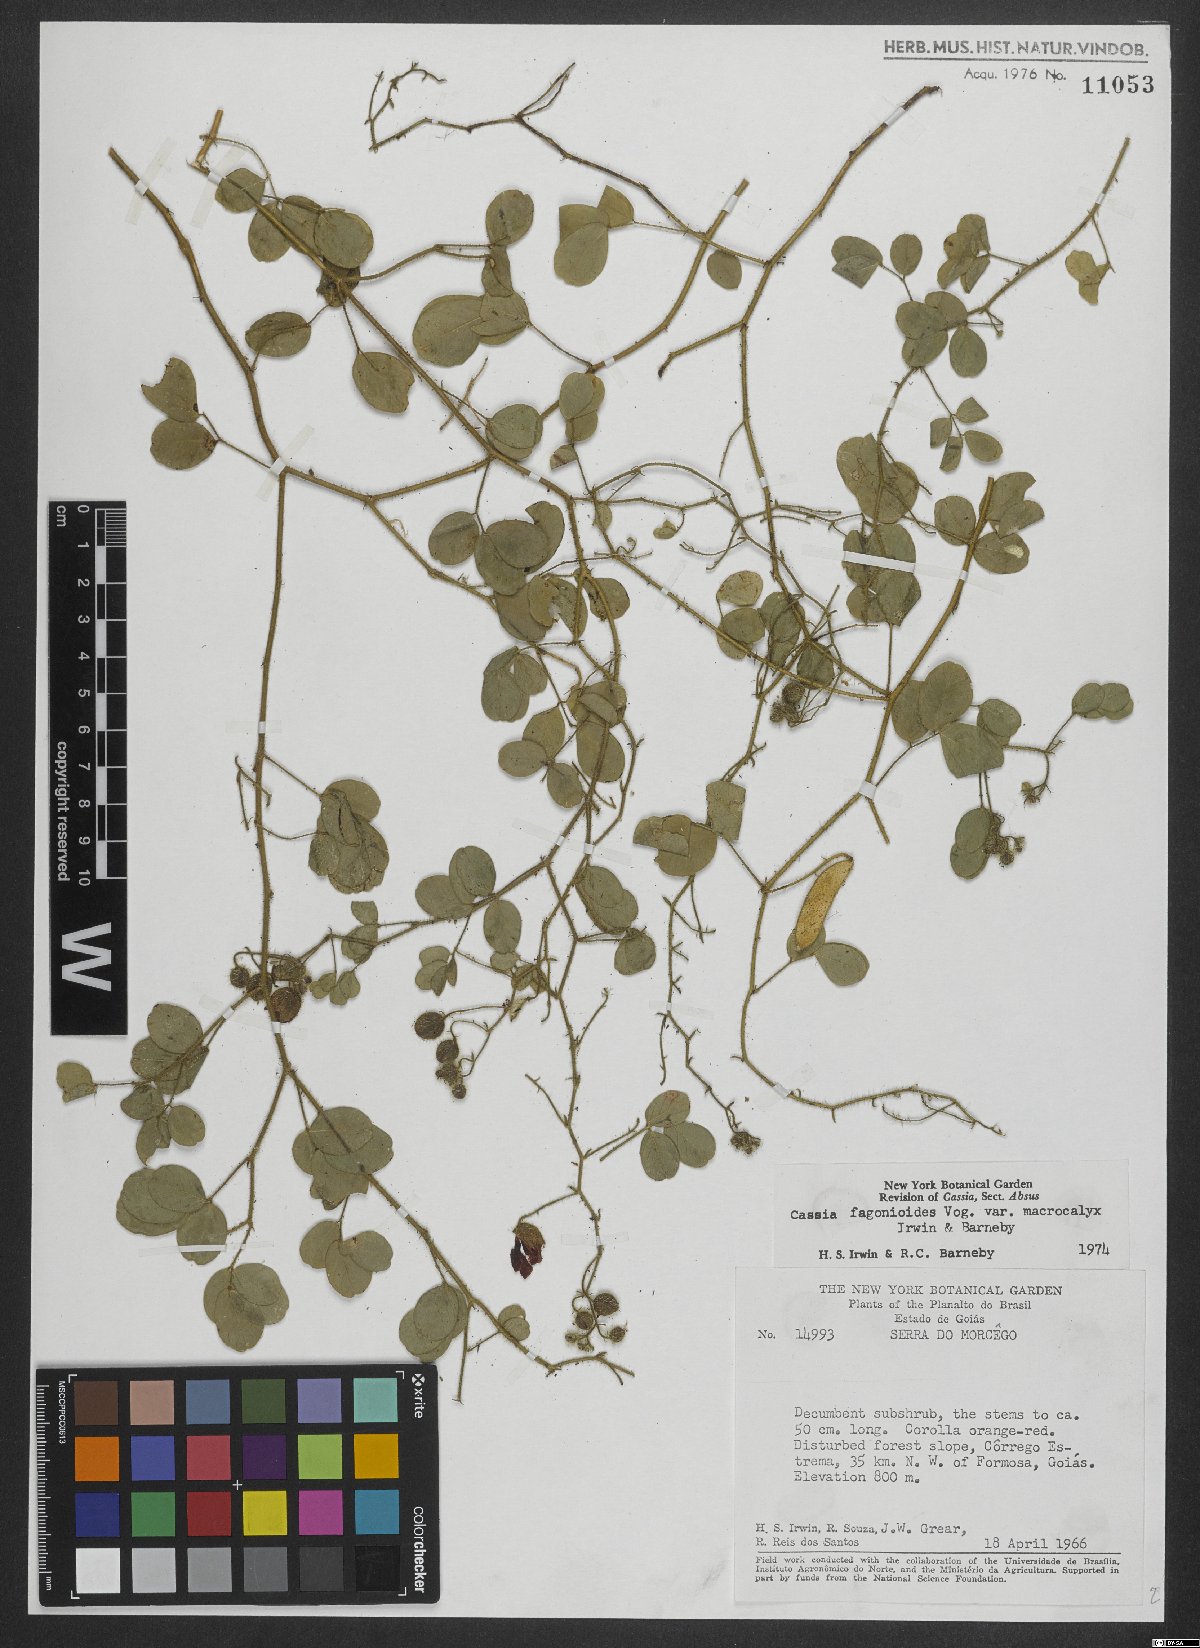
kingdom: Plantae
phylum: Tracheophyta
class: Magnoliopsida
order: Fabales
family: Fabaceae
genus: Chamaecrista
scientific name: Chamaecrista fagonioides
